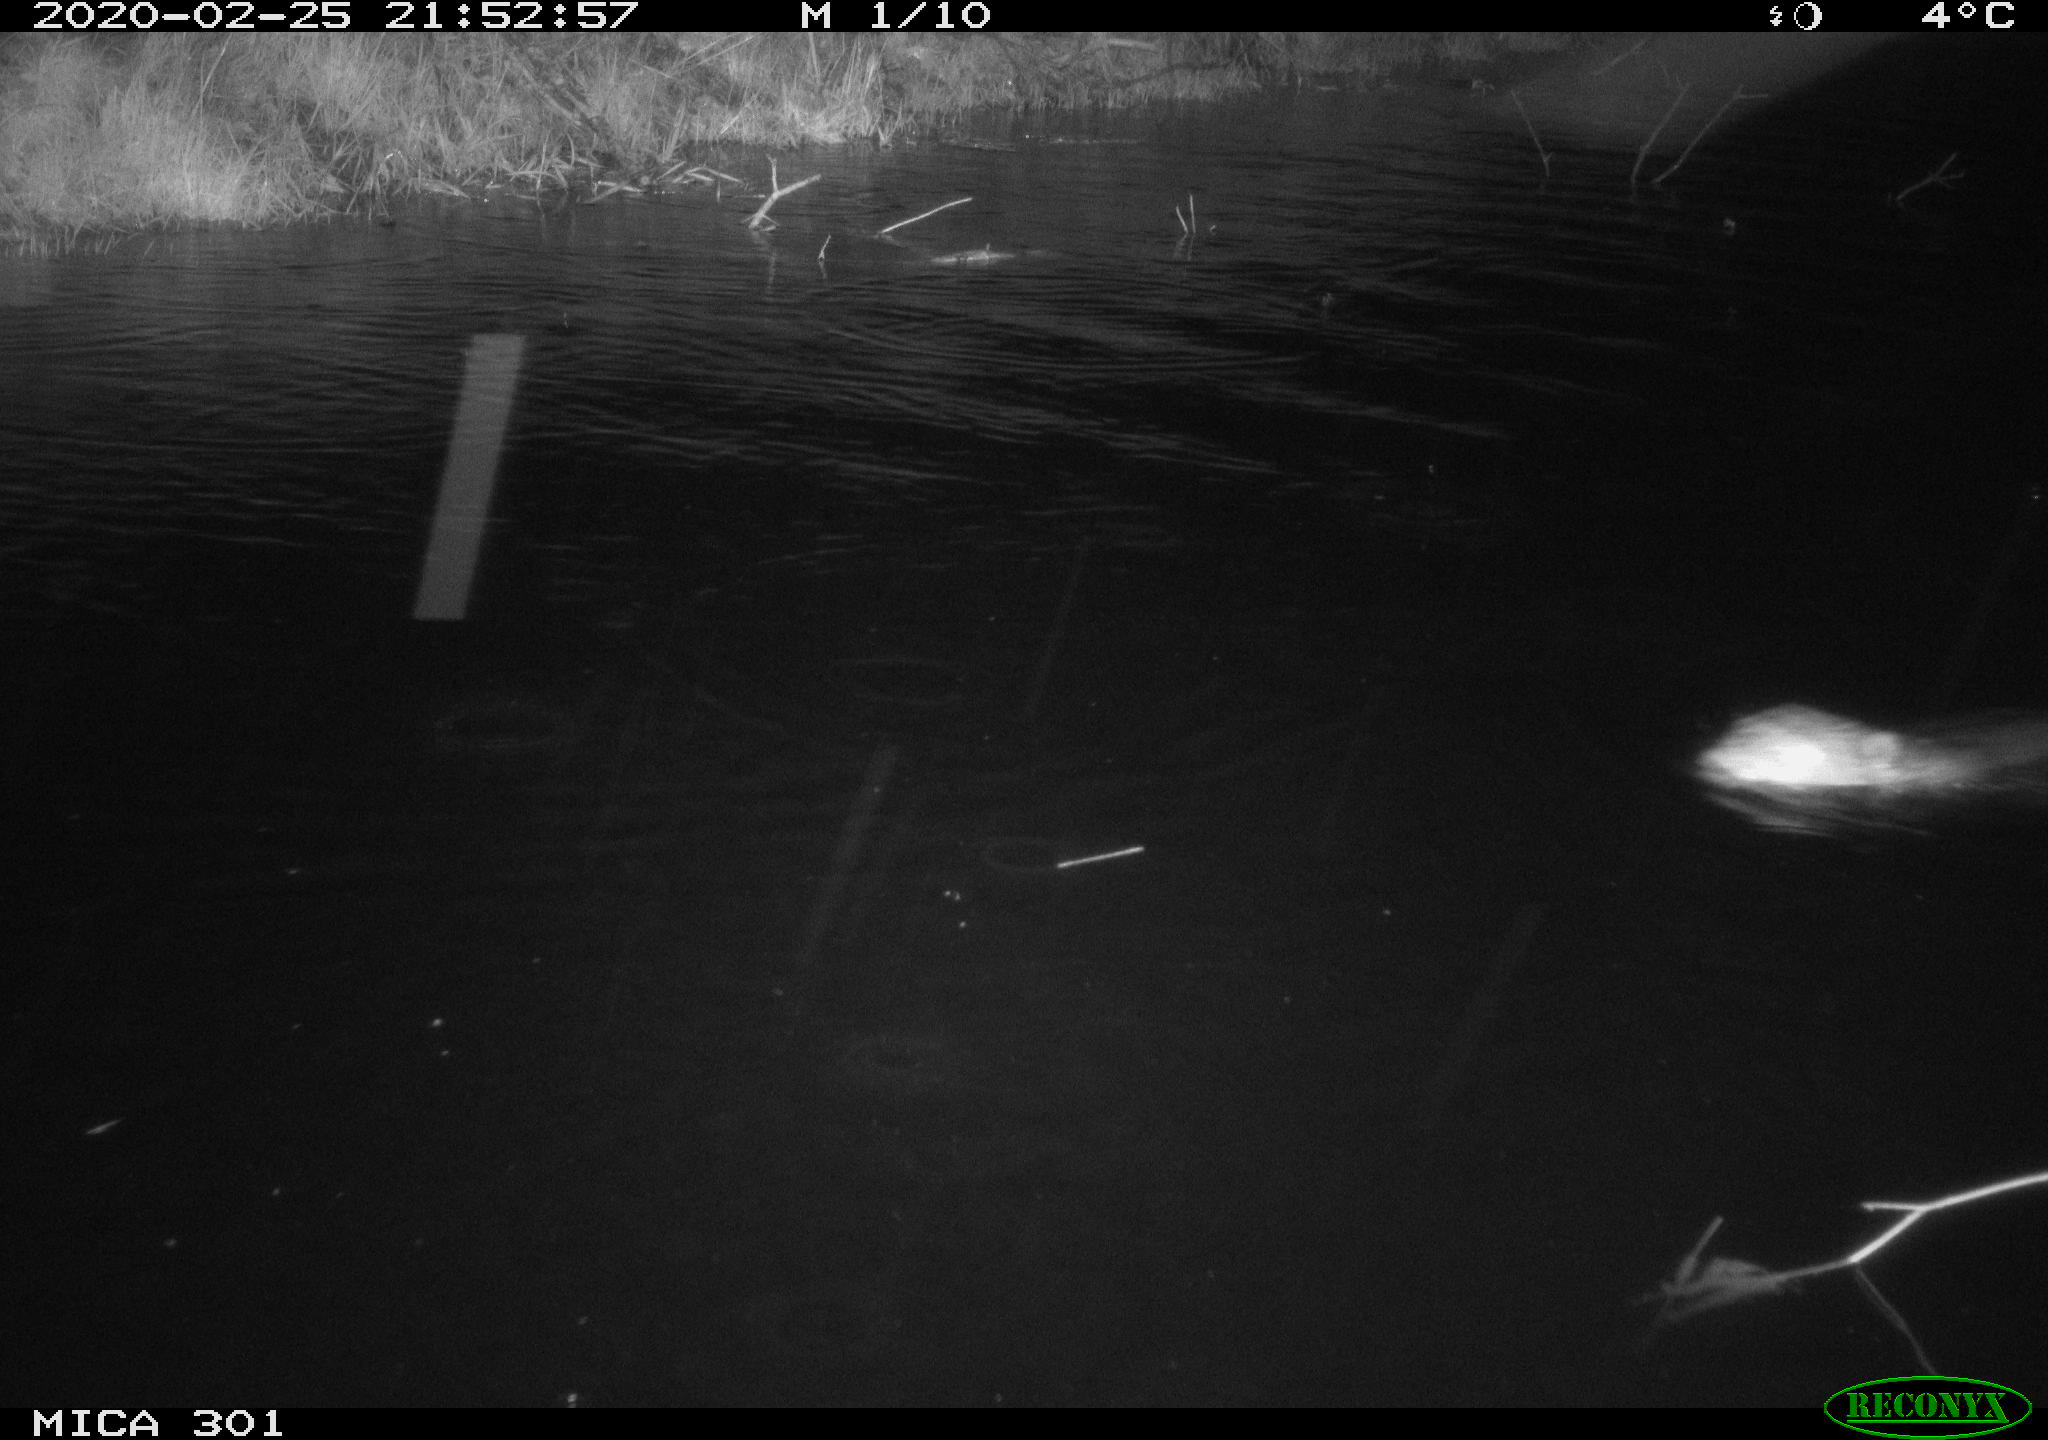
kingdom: Animalia
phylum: Chordata
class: Mammalia
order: Rodentia
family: Castoridae
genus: Castor
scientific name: Castor fiber
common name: Eurasian beaver
